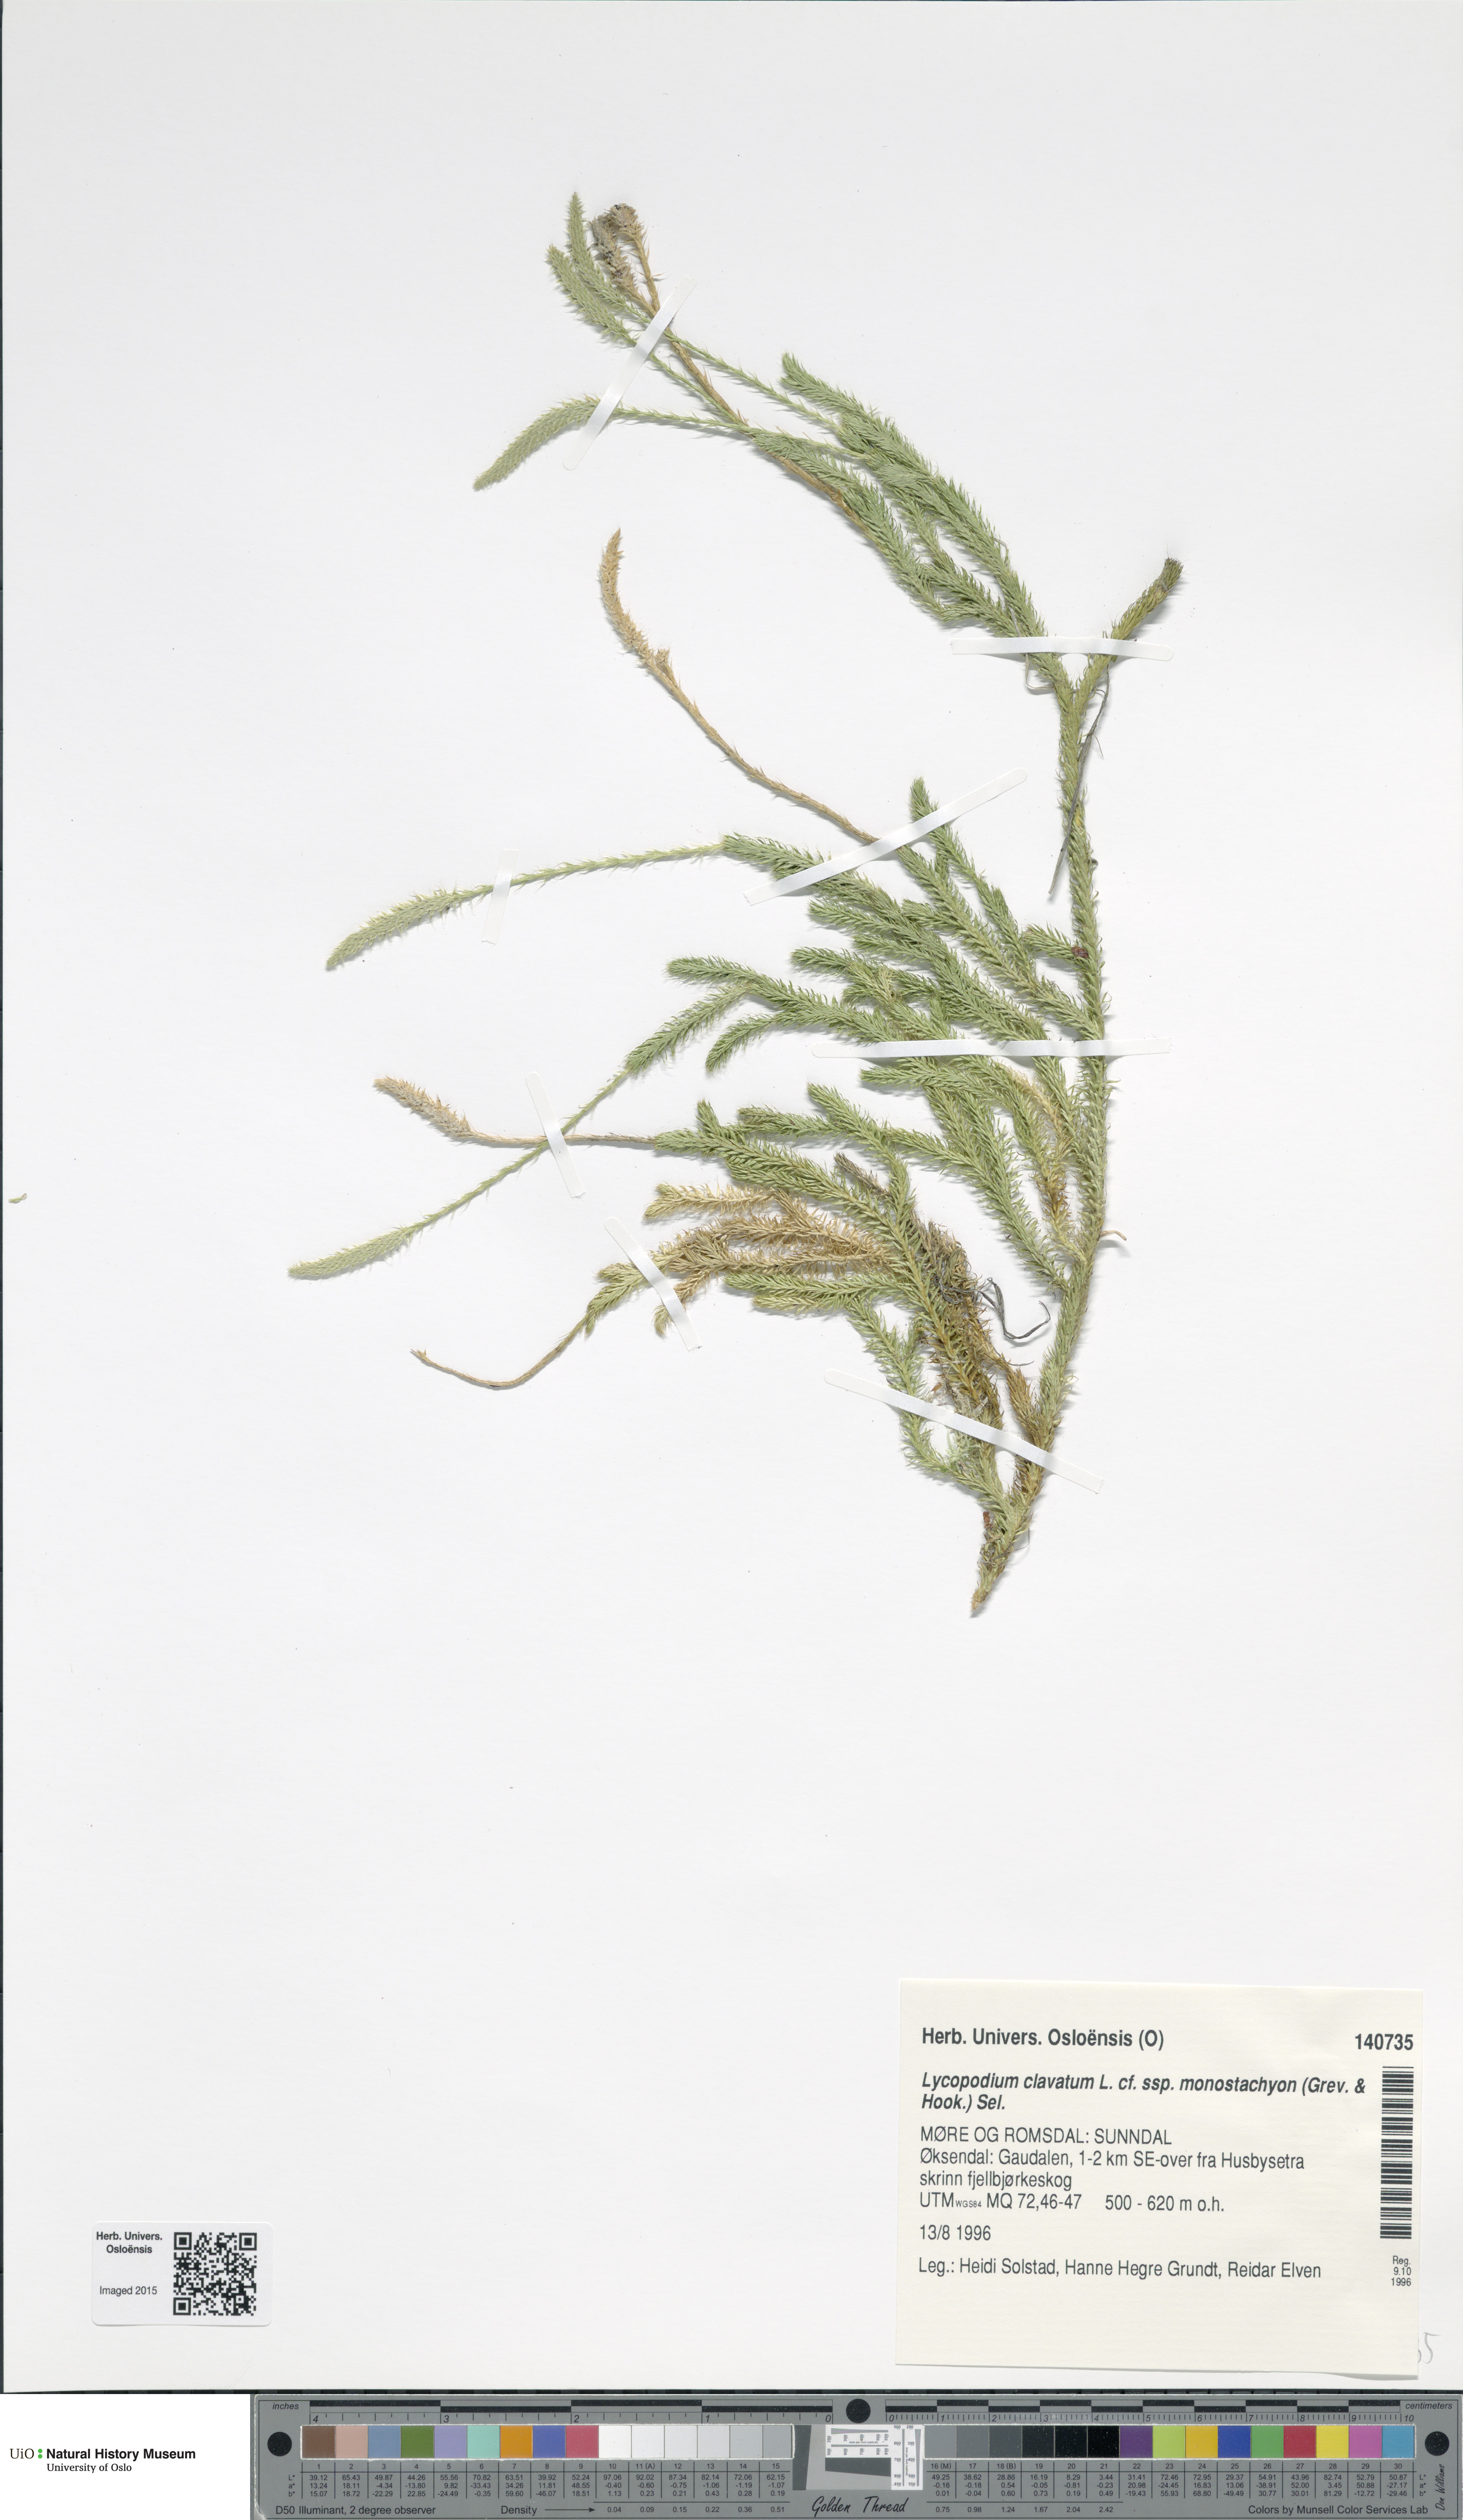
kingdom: Plantae
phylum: Tracheophyta
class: Lycopodiopsida
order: Lycopodiales
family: Lycopodiaceae
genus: Lycopodium
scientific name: Lycopodium lagopus
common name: One-cone clubmoss
